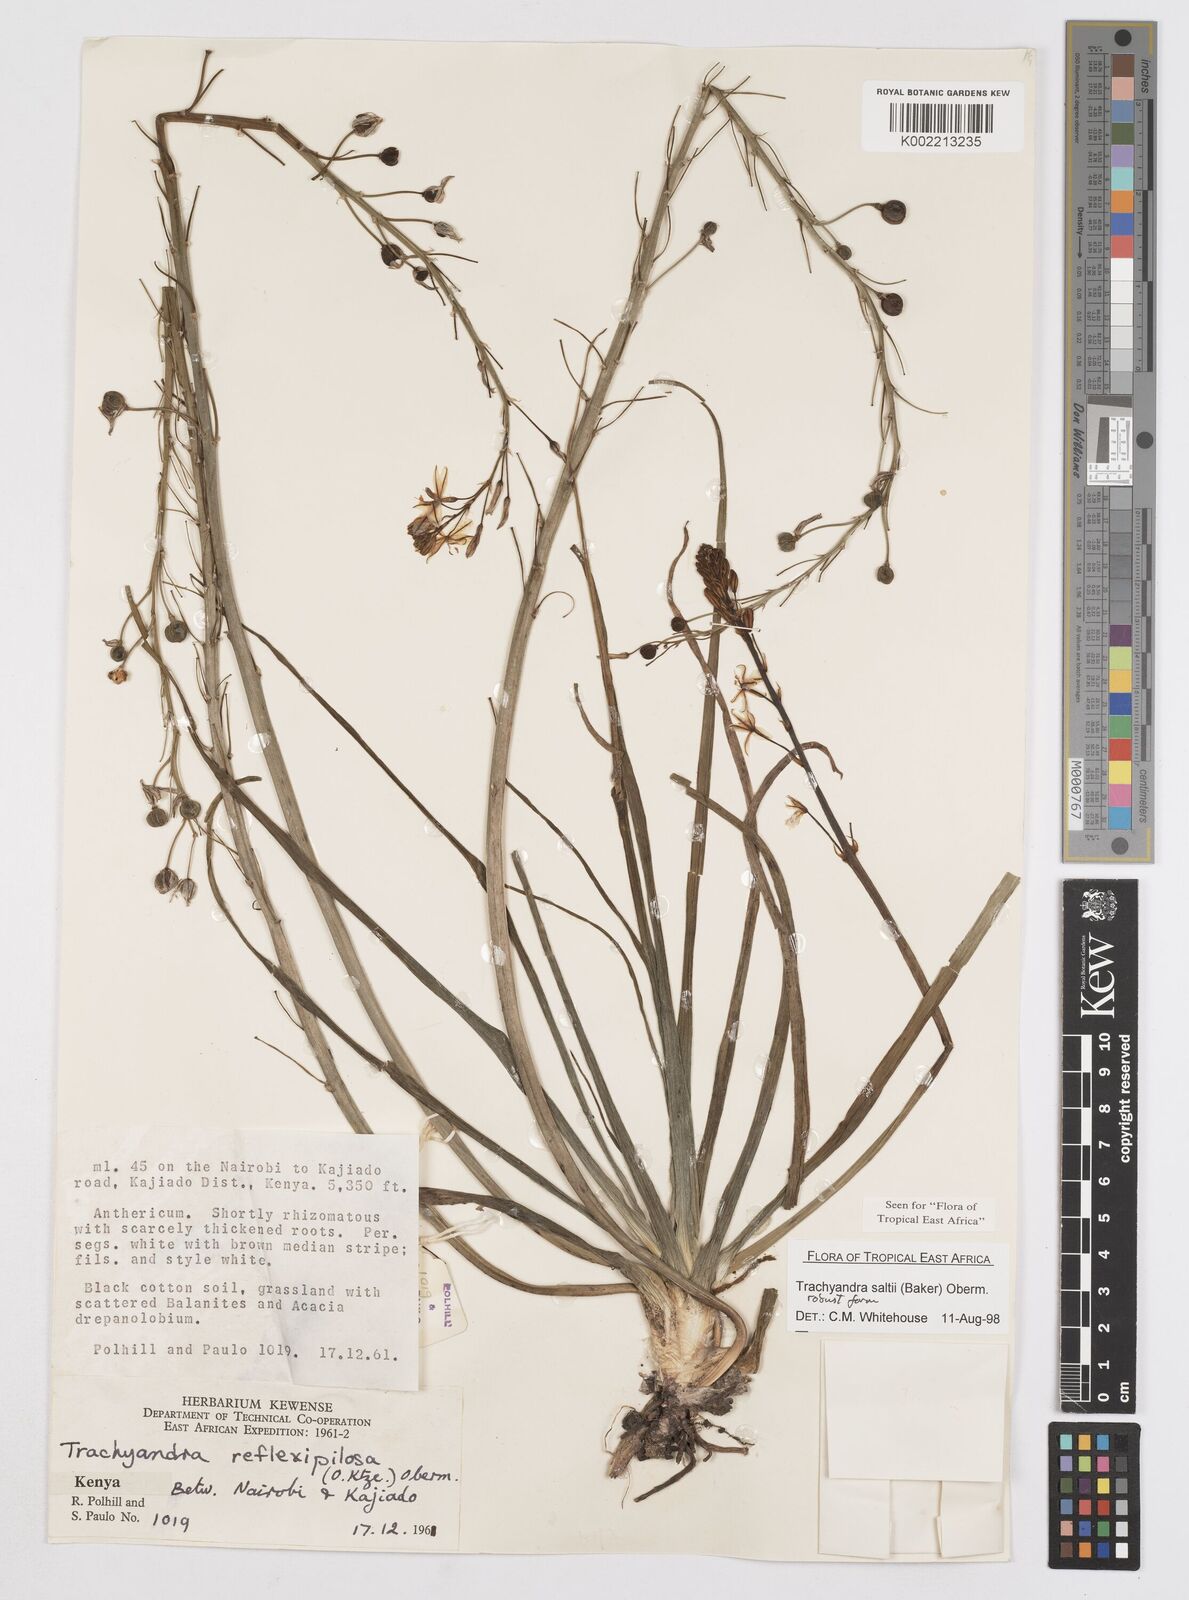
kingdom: Plantae
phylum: Tracheophyta
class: Liliopsida
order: Asparagales
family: Asphodelaceae
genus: Trachyandra
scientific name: Trachyandra saltii
